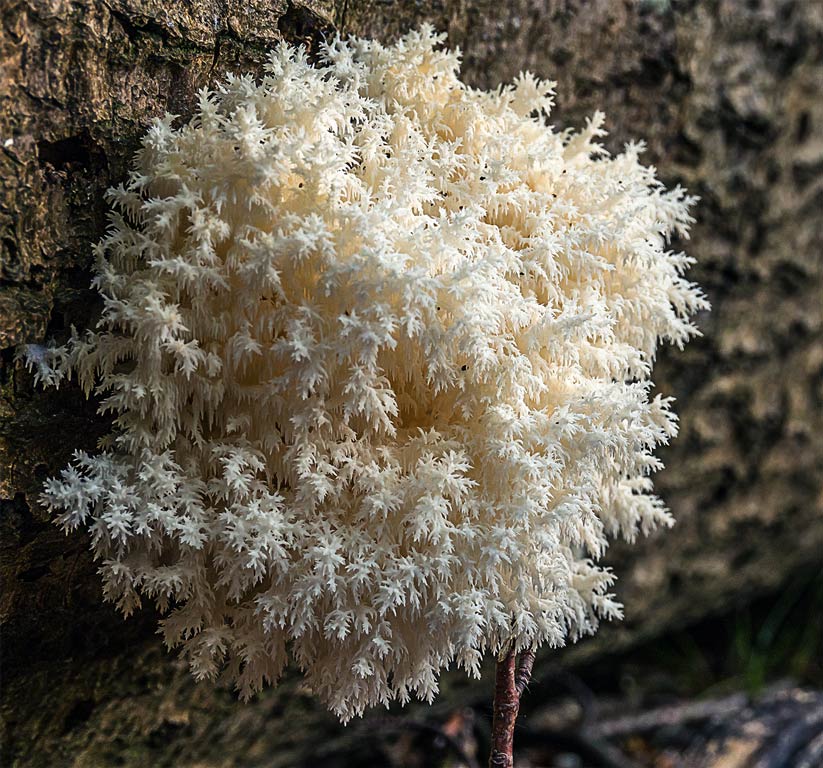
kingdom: Fungi
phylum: Basidiomycota
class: Agaricomycetes
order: Russulales
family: Hericiaceae
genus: Hericium
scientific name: Hericium coralloides
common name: koralpigsvamp
